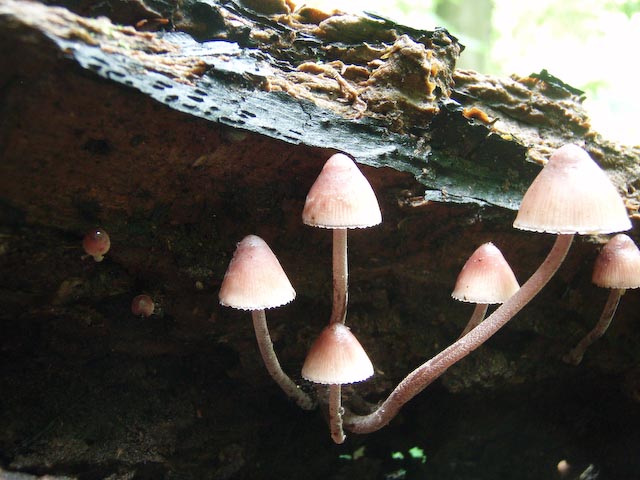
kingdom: Fungi
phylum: Basidiomycota
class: Agaricomycetes
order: Agaricales
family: Mycenaceae
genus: Mycena
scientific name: Mycena haematopus
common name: blødende huesvamp
